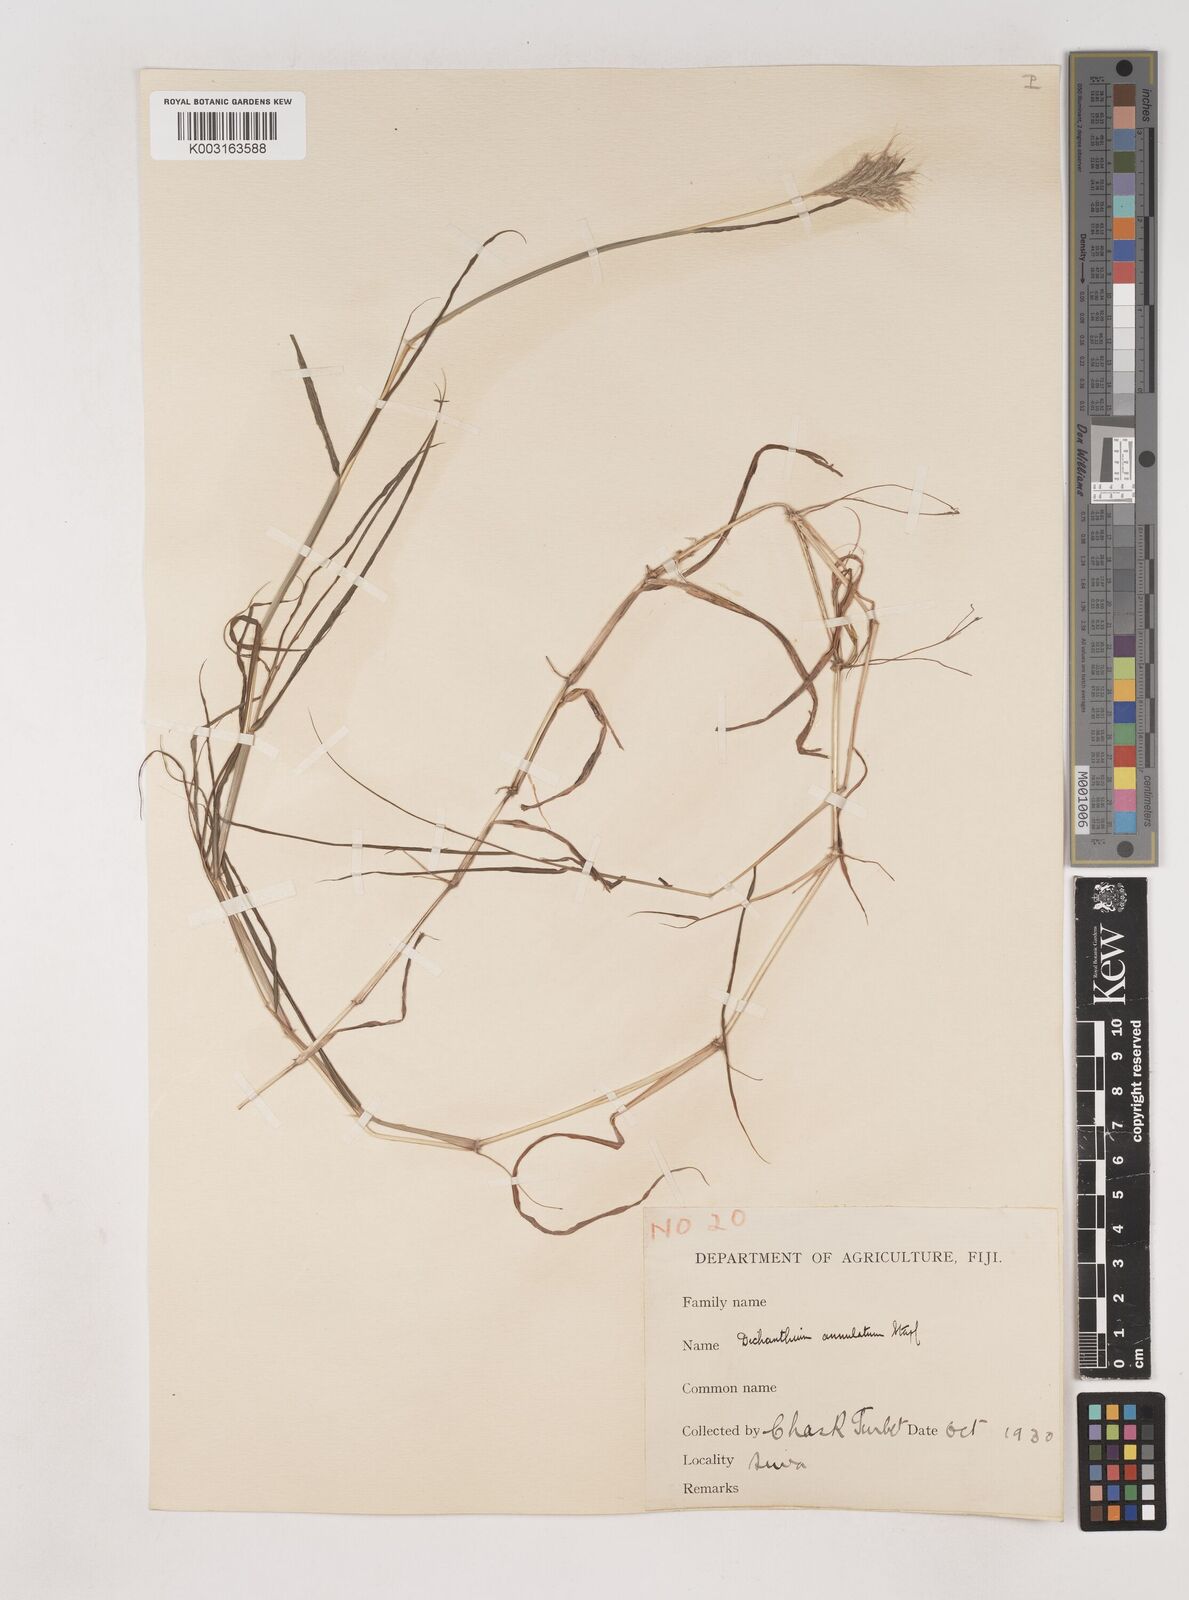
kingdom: Plantae
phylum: Tracheophyta
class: Liliopsida
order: Poales
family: Poaceae
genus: Dichanthium
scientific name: Dichanthium annulatum
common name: Kleberg's bluestem
